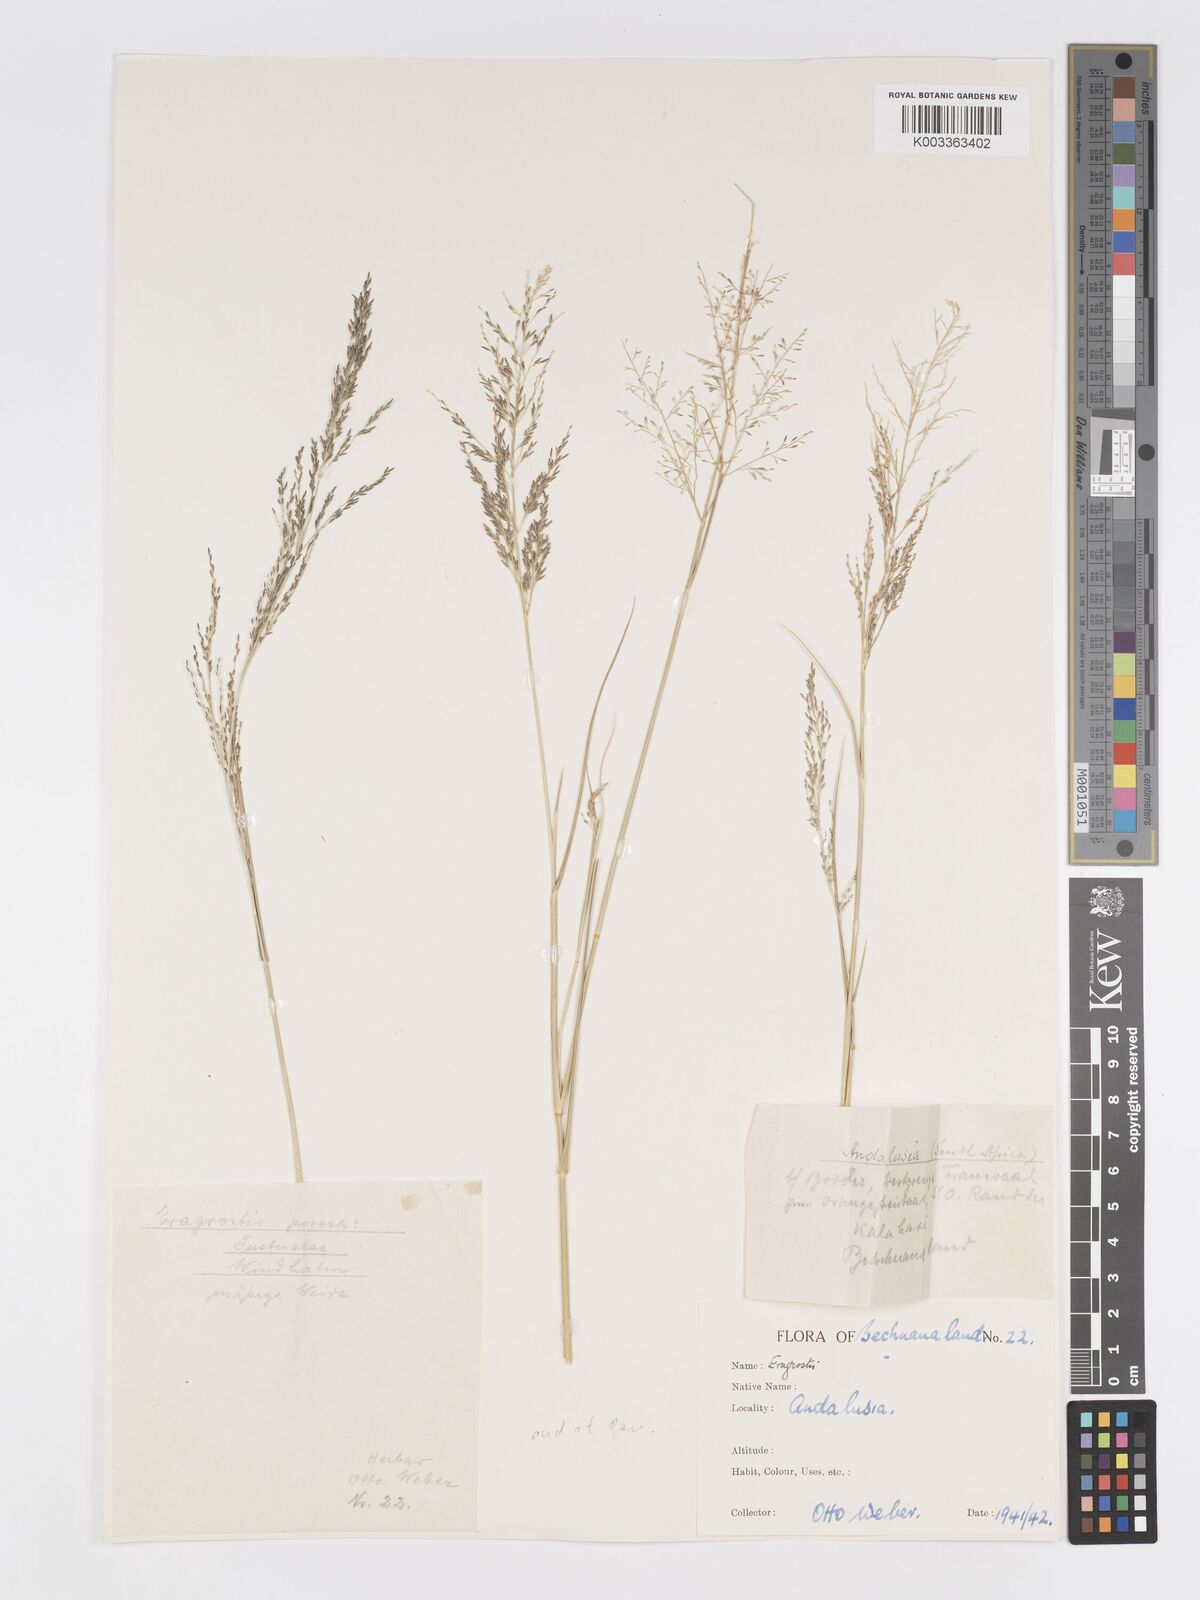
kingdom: Plantae
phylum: Tracheophyta
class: Liliopsida
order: Poales
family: Poaceae
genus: Eragrostis
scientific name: Eragrostis lehmanniana
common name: Lehmann lovegrass
